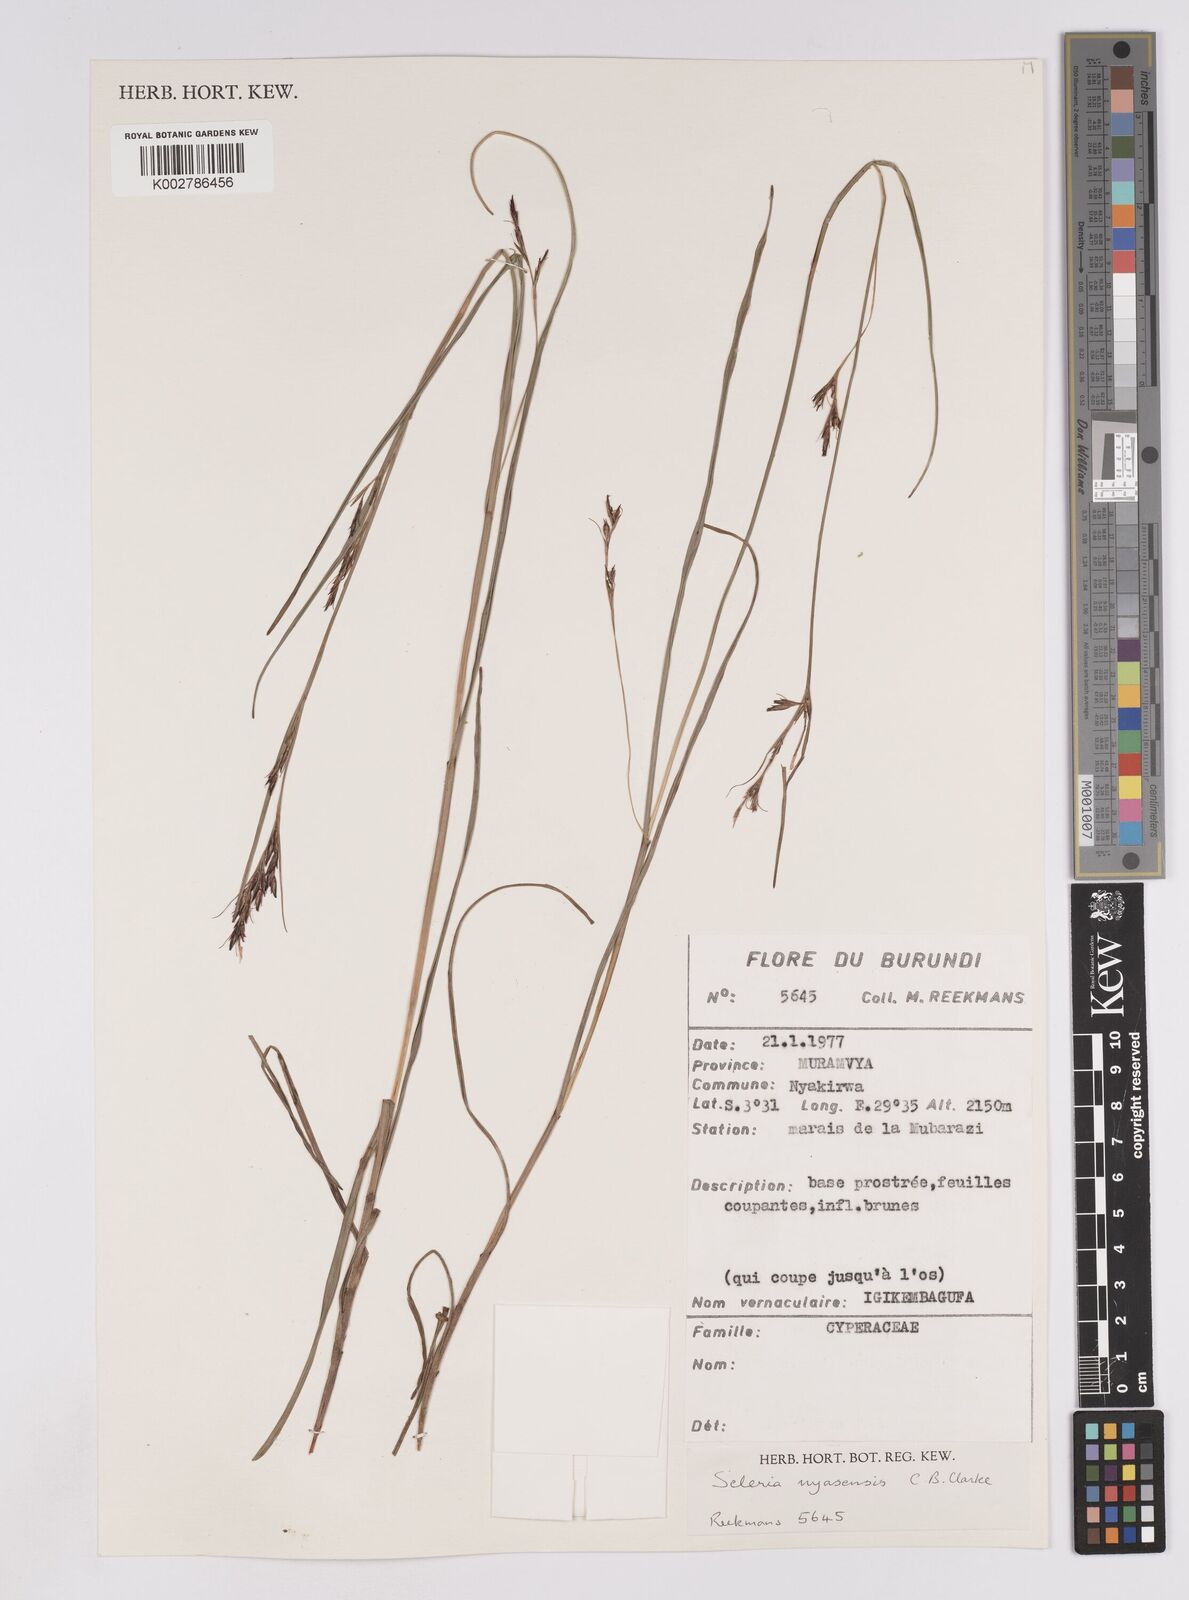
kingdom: Plantae
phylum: Tracheophyta
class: Liliopsida
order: Poales
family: Cyperaceae
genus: Scleria
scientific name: Scleria nyasensis
